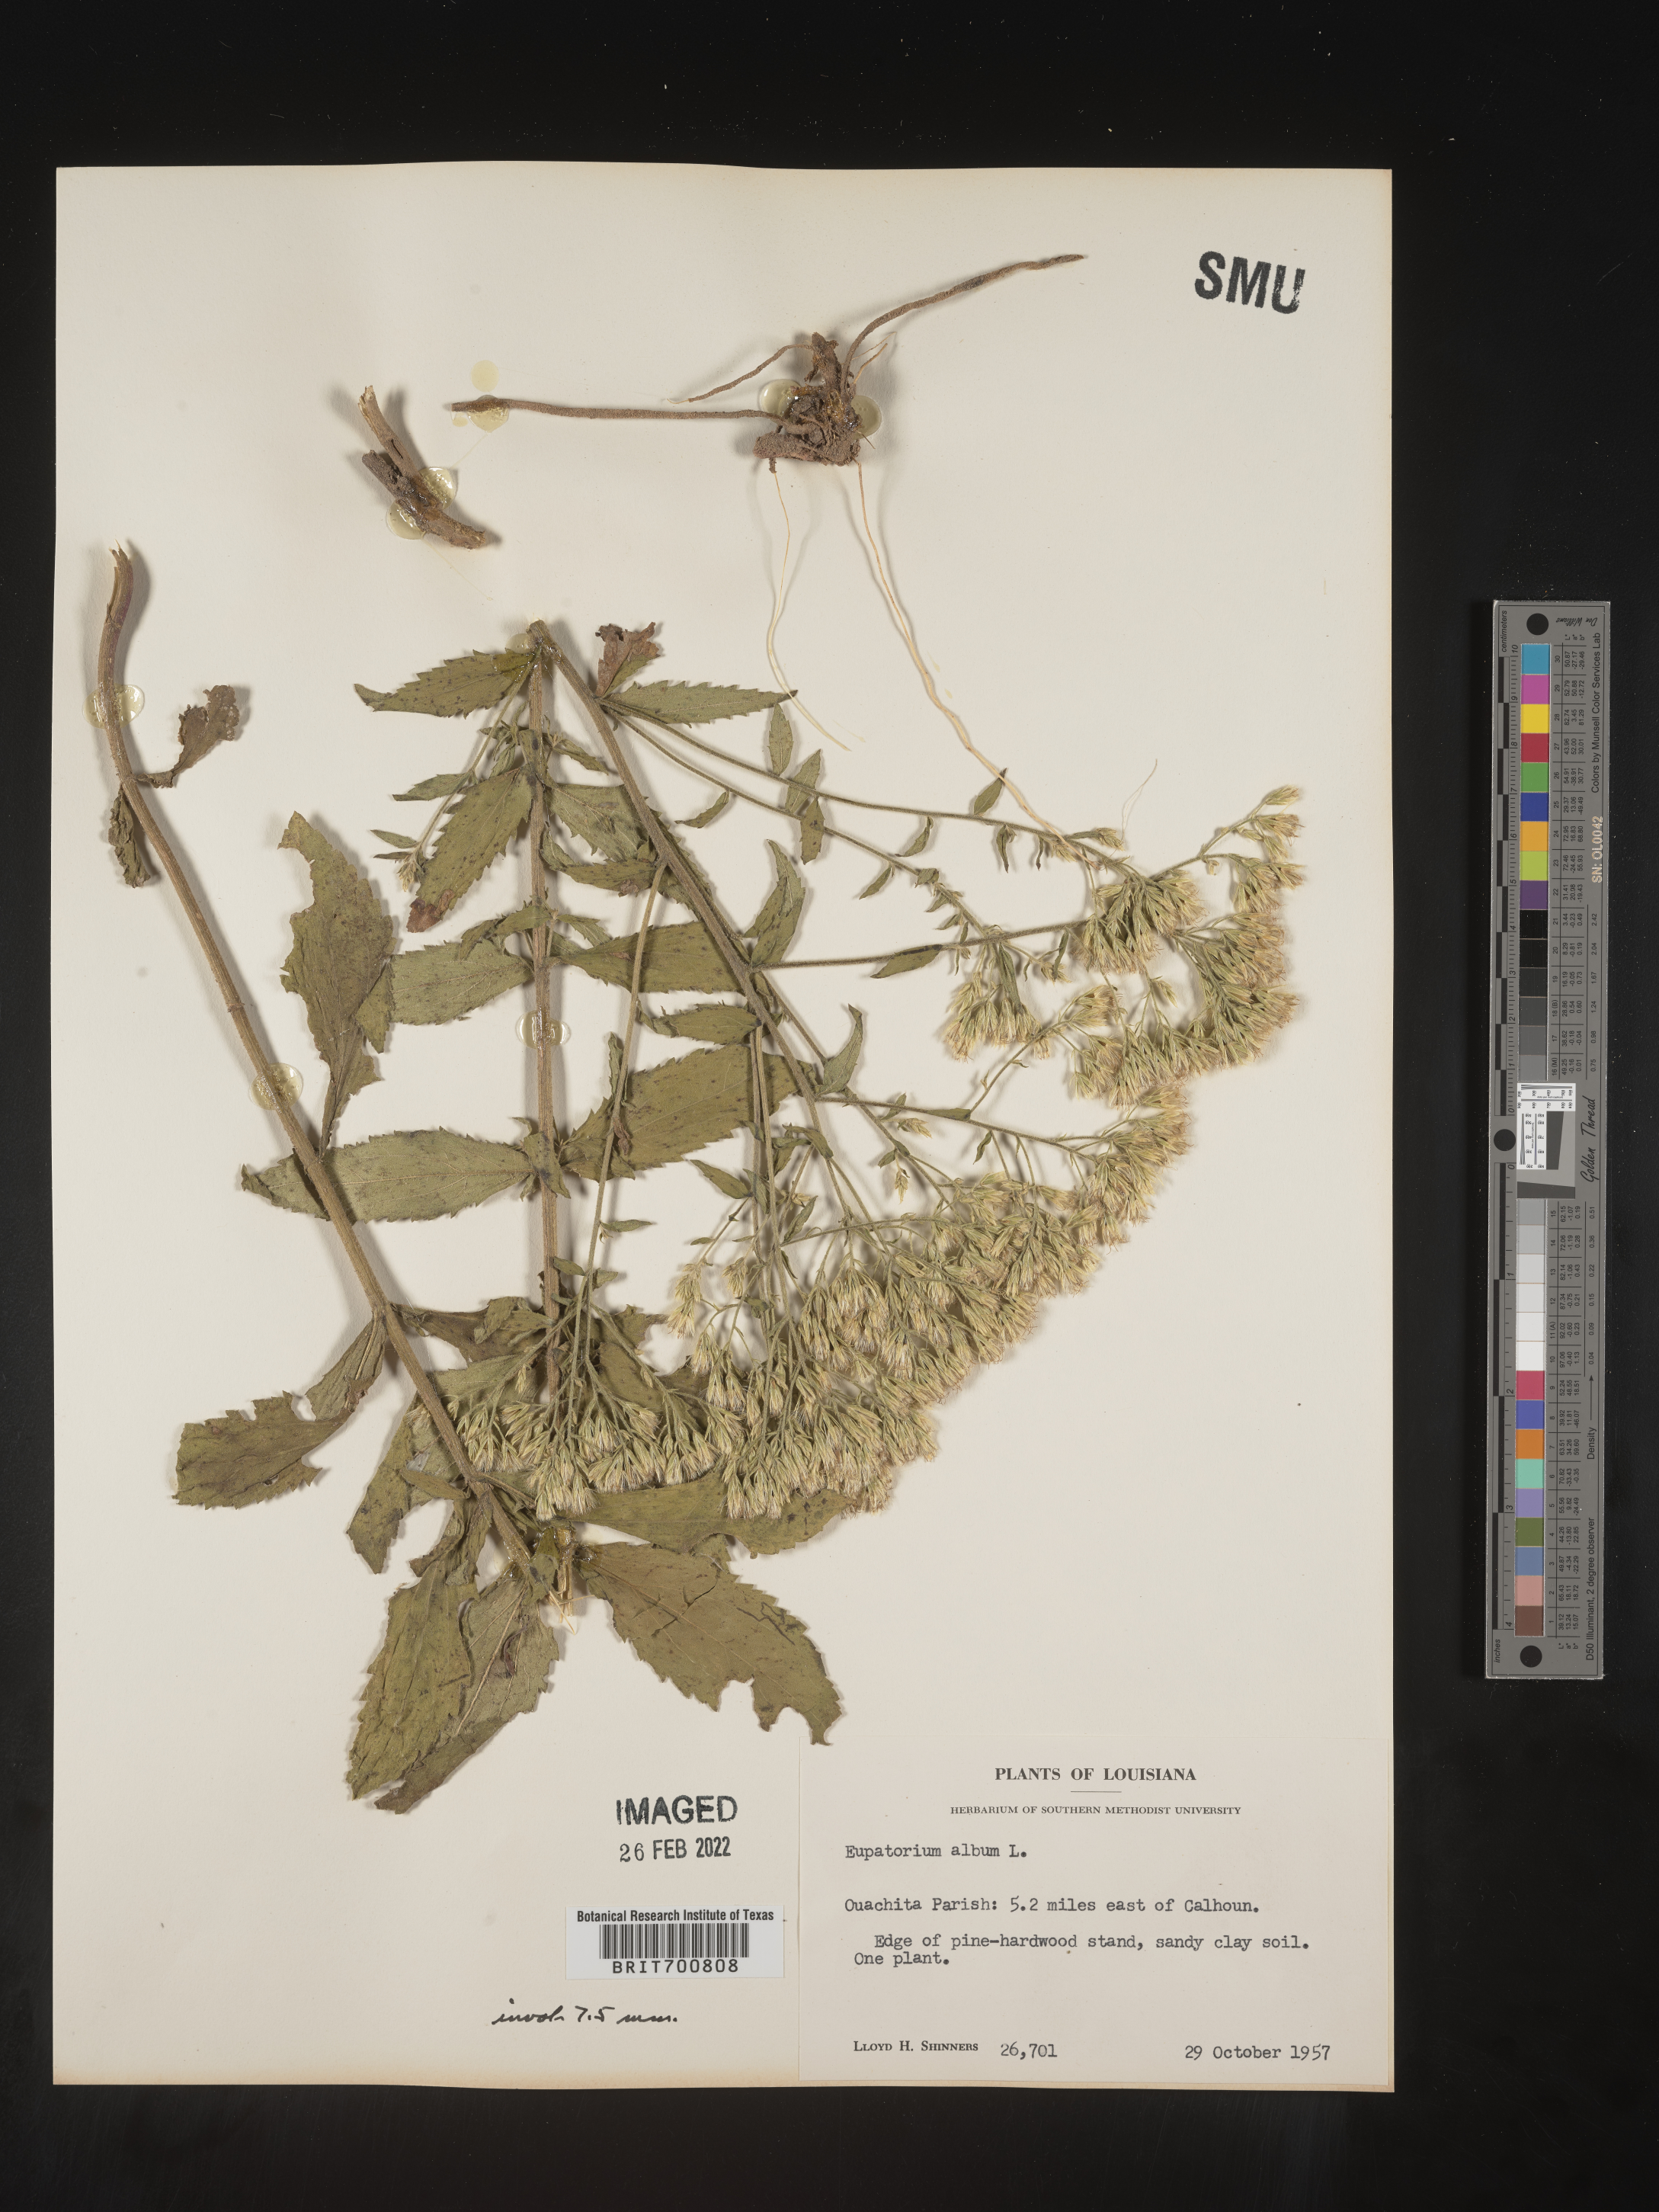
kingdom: Plantae
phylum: Tracheophyta
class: Magnoliopsida
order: Asterales
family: Asteraceae
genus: Eupatorium
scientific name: Eupatorium album
